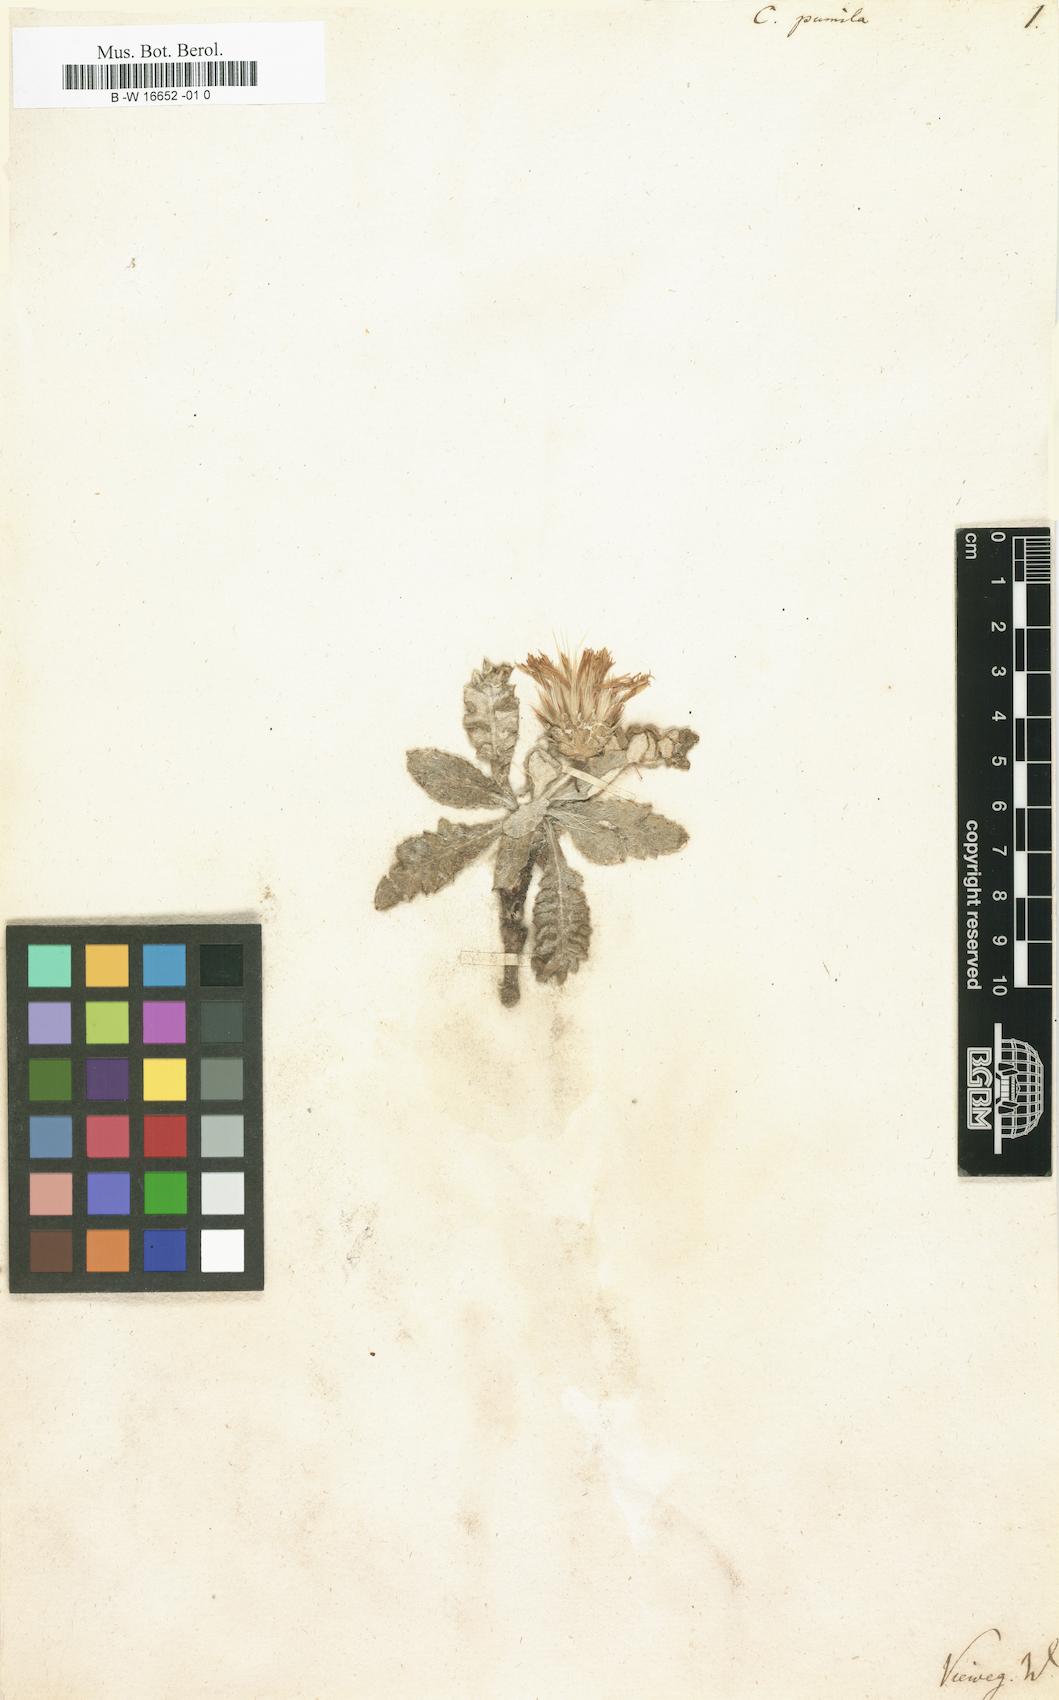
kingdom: Plantae
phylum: Tracheophyta
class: Magnoliopsida
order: Asterales
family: Asteraceae
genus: Centaurea
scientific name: Centaurea raphanina
